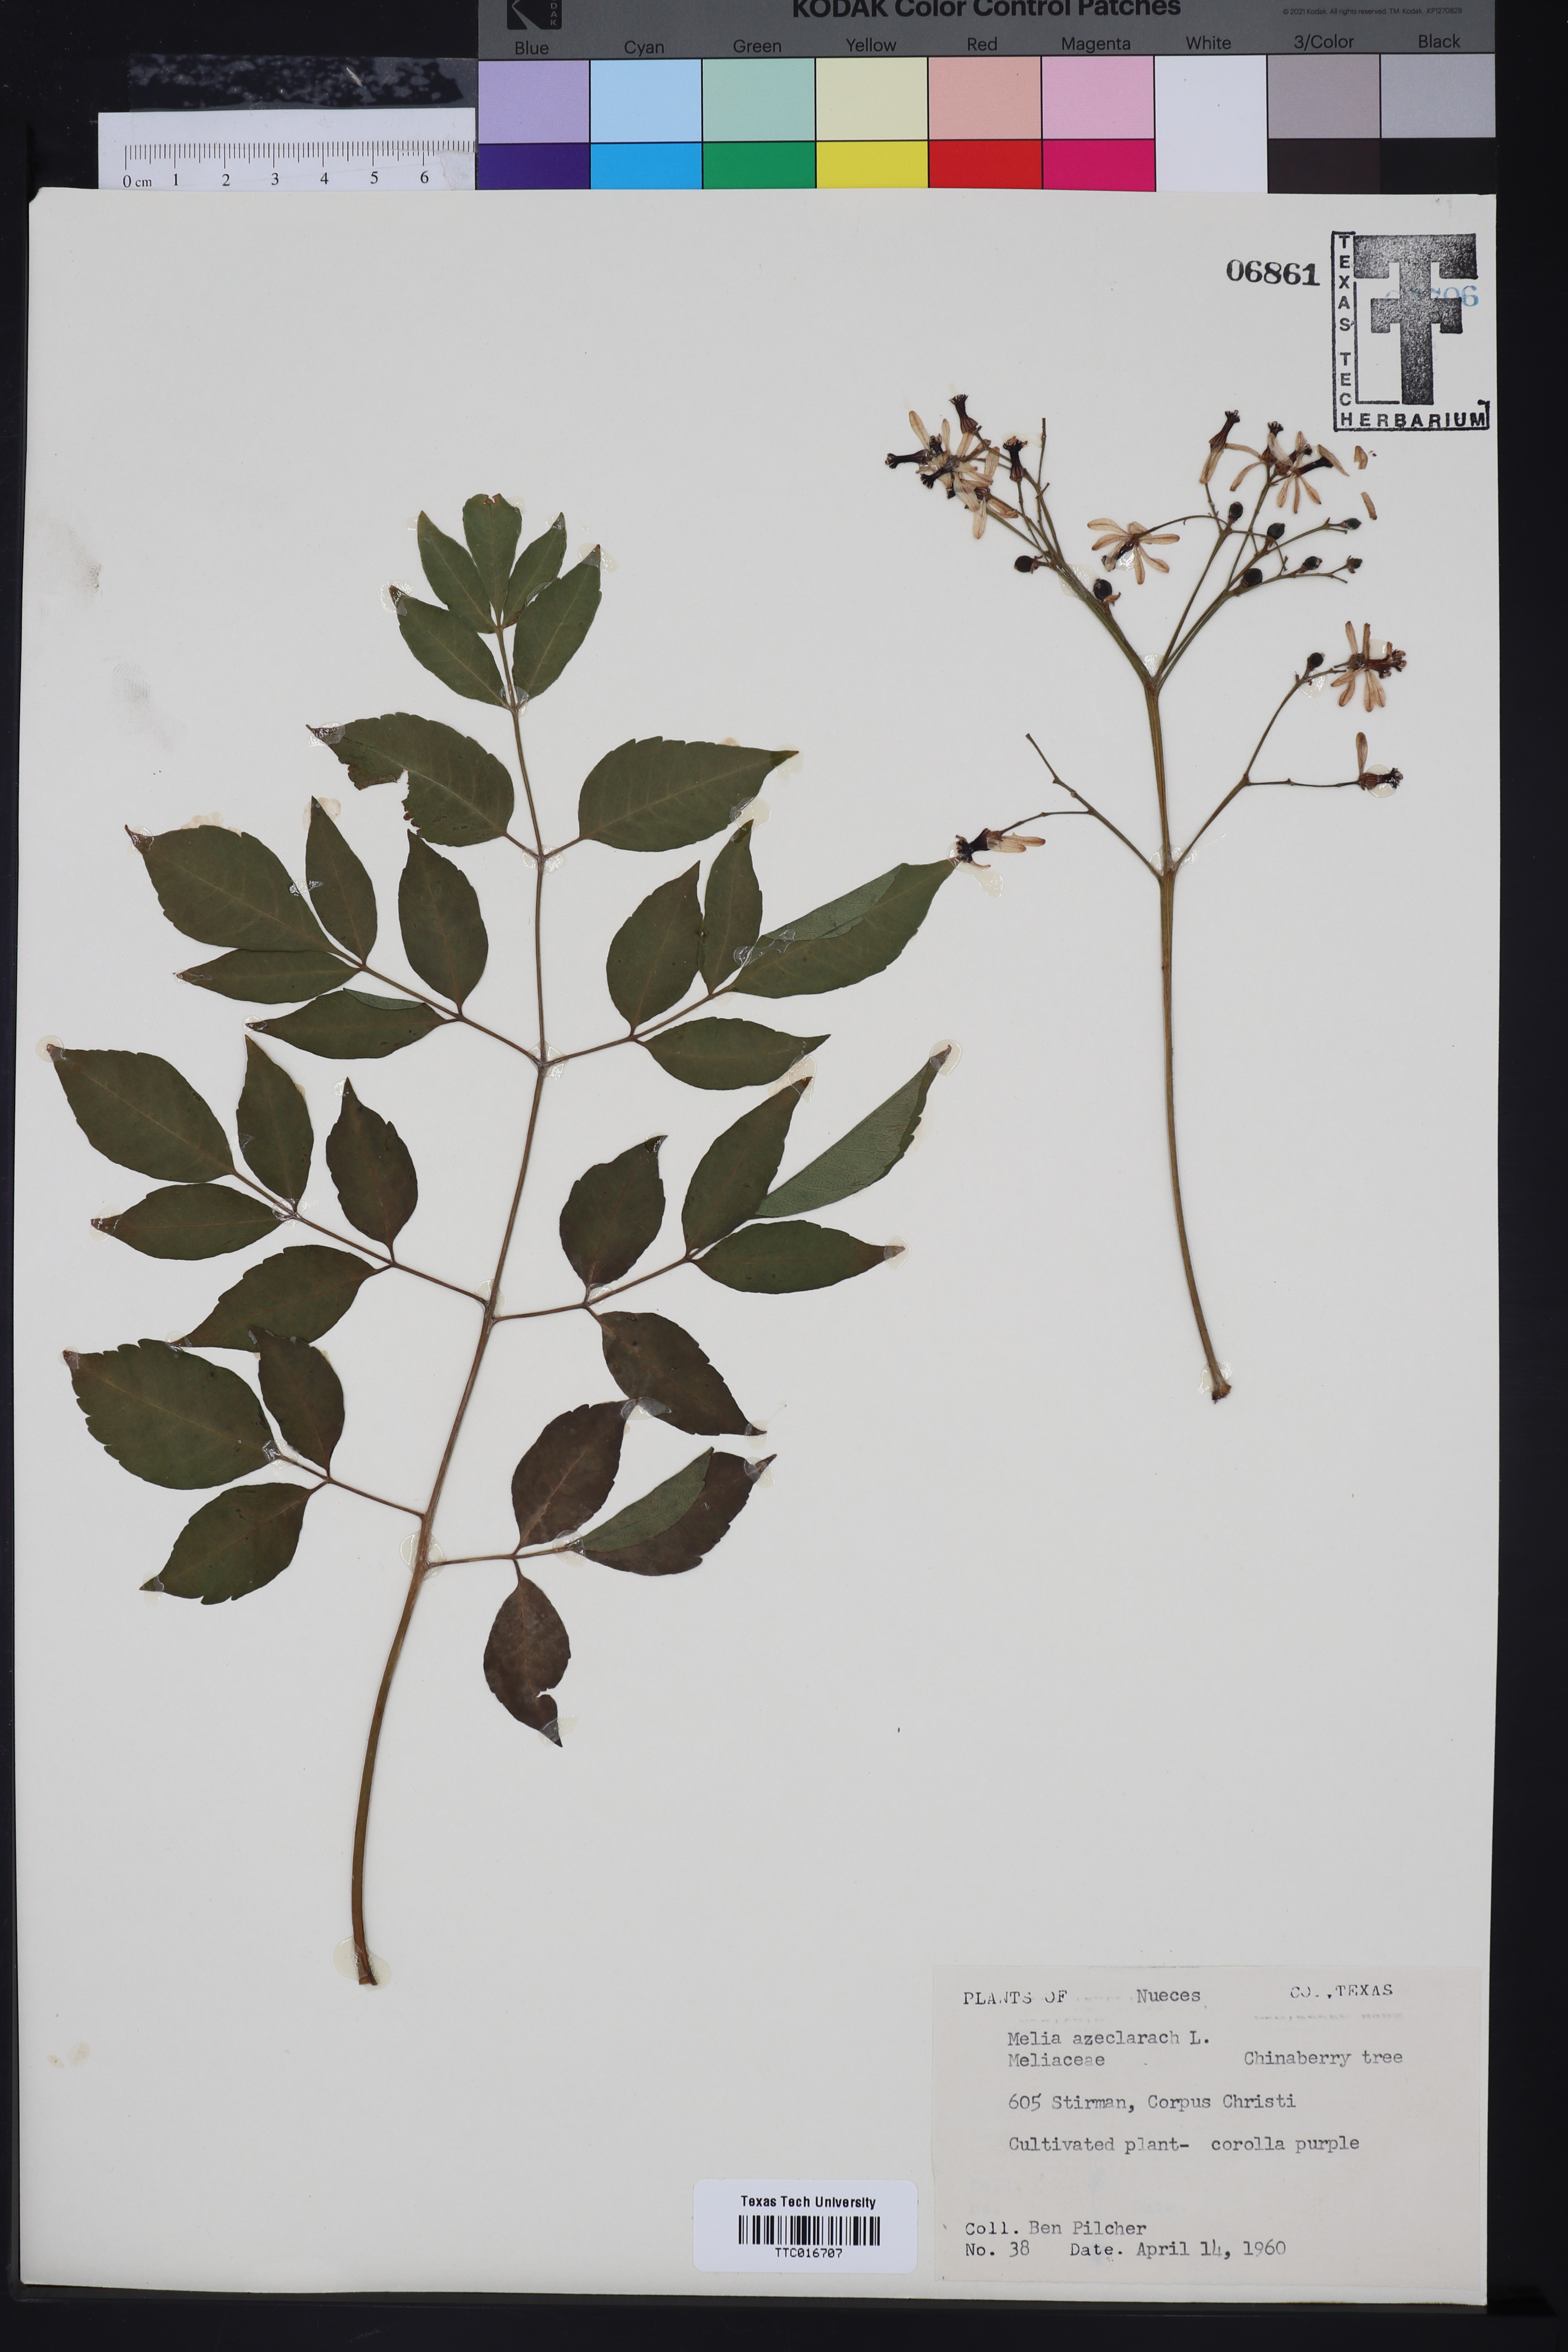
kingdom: Plantae
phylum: Tracheophyta
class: Magnoliopsida
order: Sapindales
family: Meliaceae
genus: Melia
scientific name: Melia azedarach
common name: Chinaberrytree
